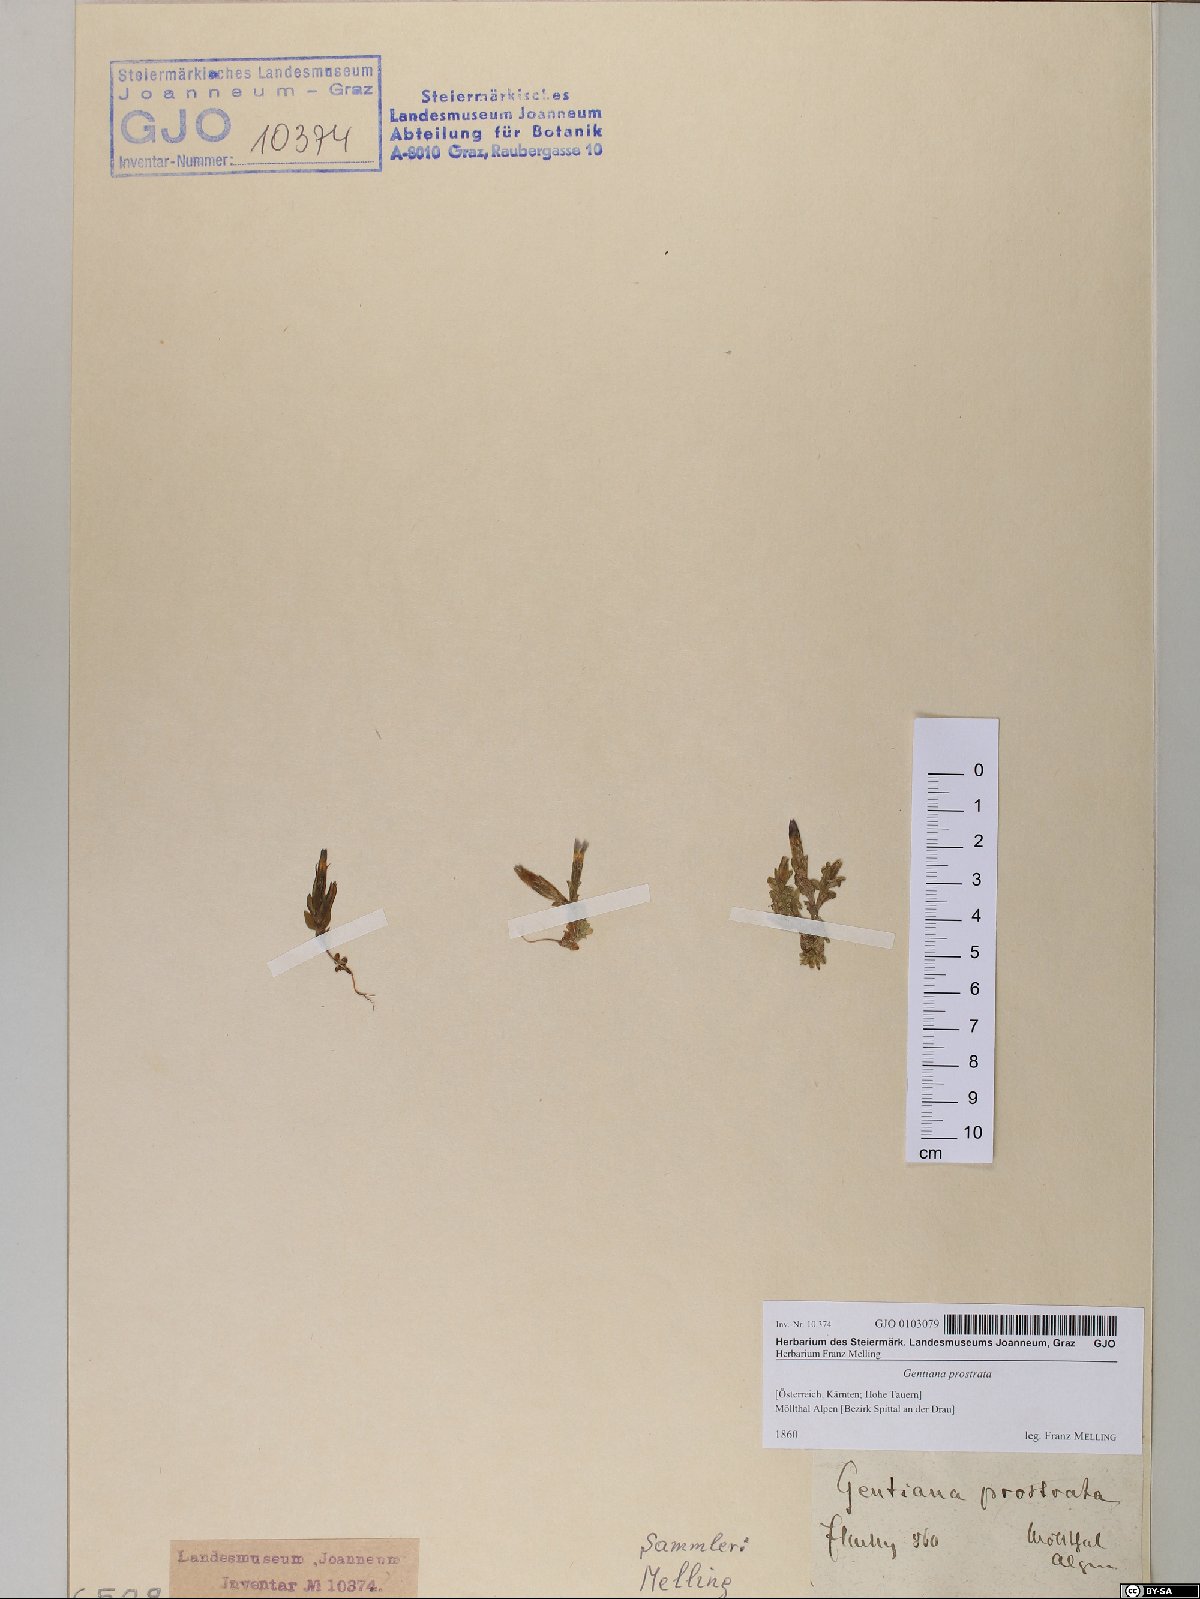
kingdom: Plantae
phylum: Tracheophyta
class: Magnoliopsida
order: Gentianales
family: Gentianaceae
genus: Gentiana
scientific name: Gentiana prostrata
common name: Moss gentian
